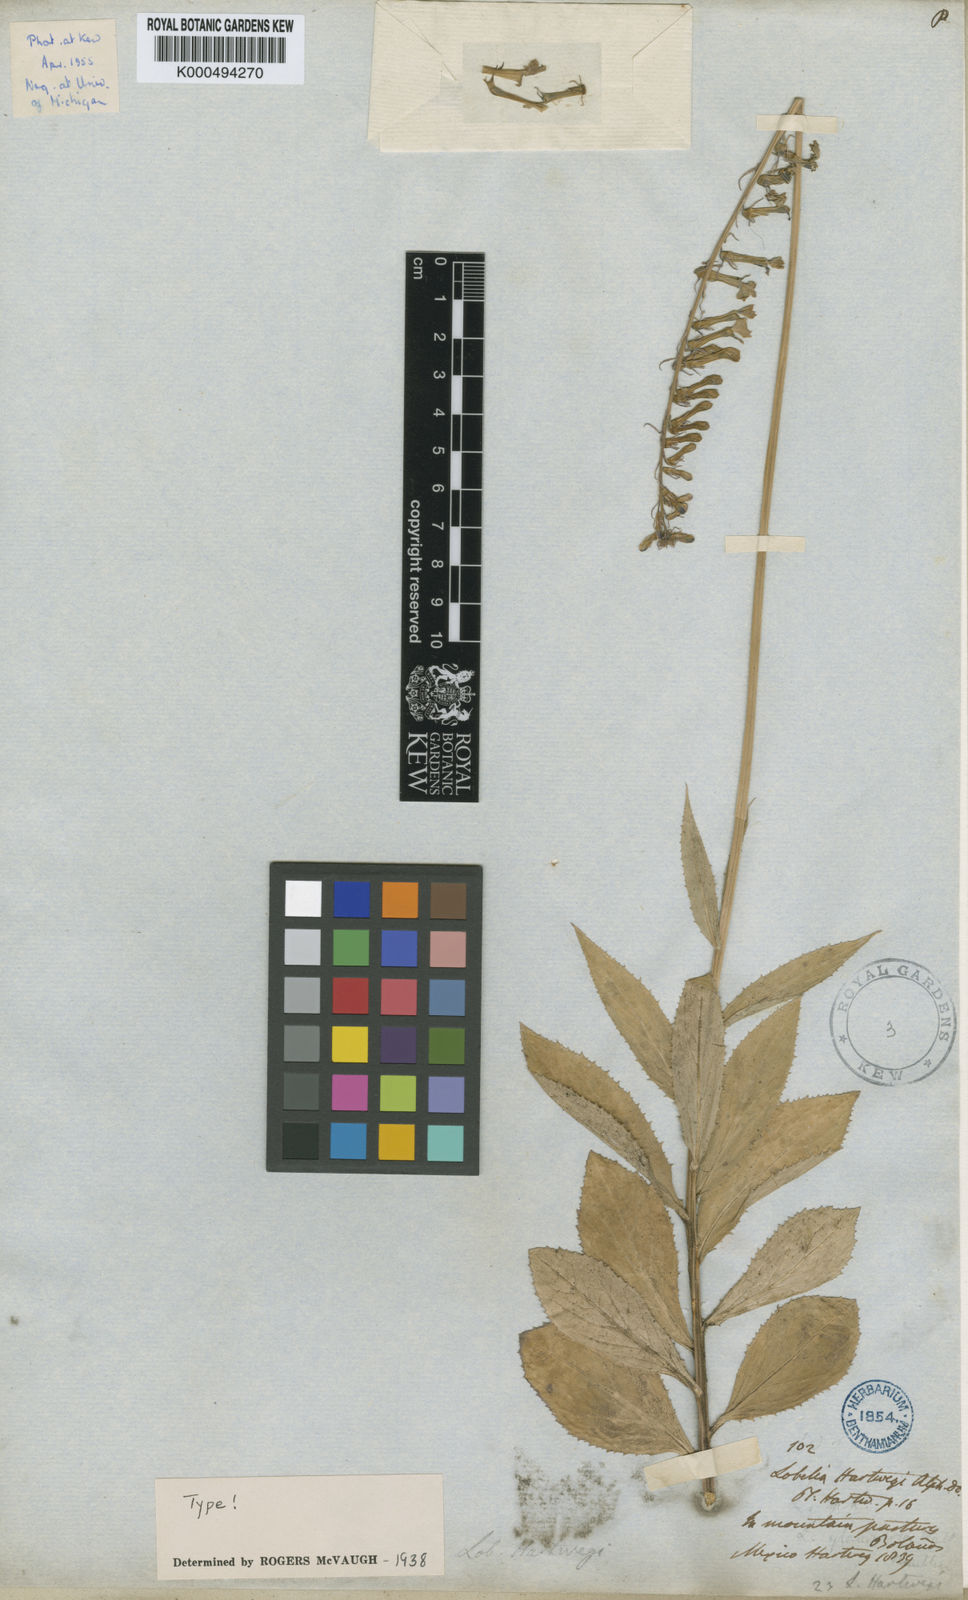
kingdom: Plantae
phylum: Tracheophyta
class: Magnoliopsida
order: Asterales
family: Campanulaceae
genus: Lobelia
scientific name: Lobelia hartwegii
